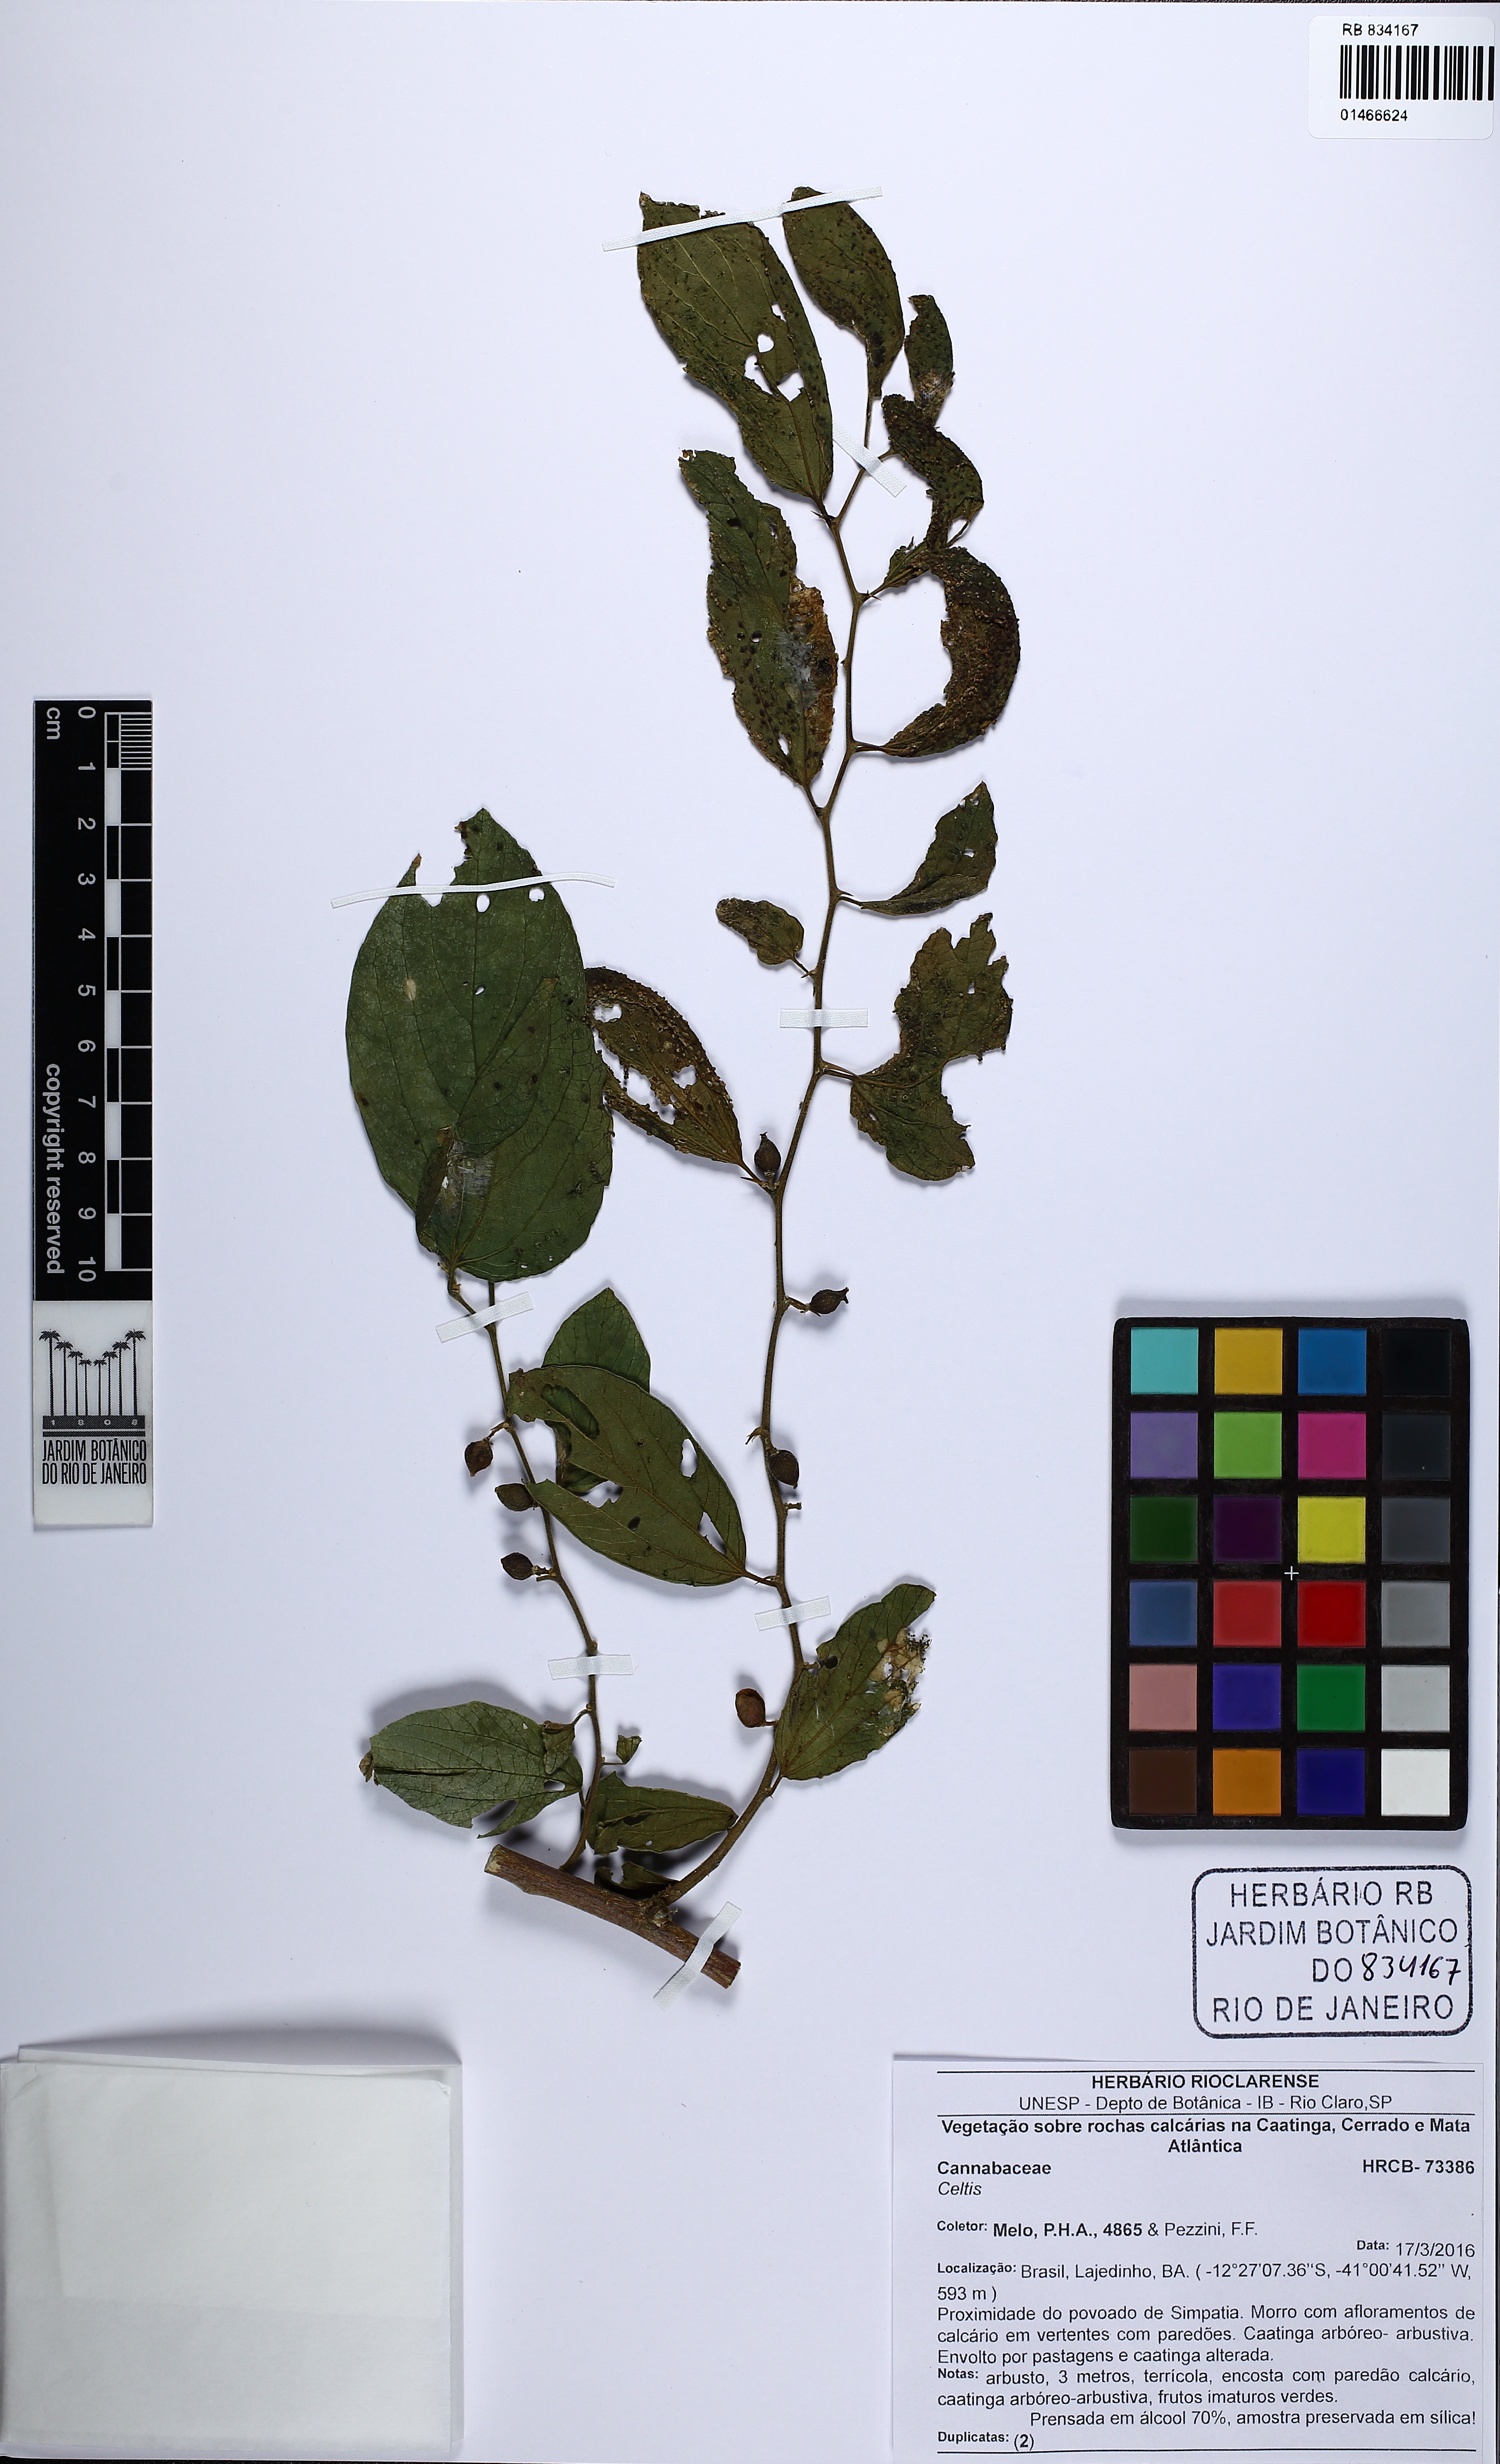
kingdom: Plantae
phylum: Tracheophyta
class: Magnoliopsida
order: Rosales
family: Cannabaceae
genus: Celtis
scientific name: Celtis
